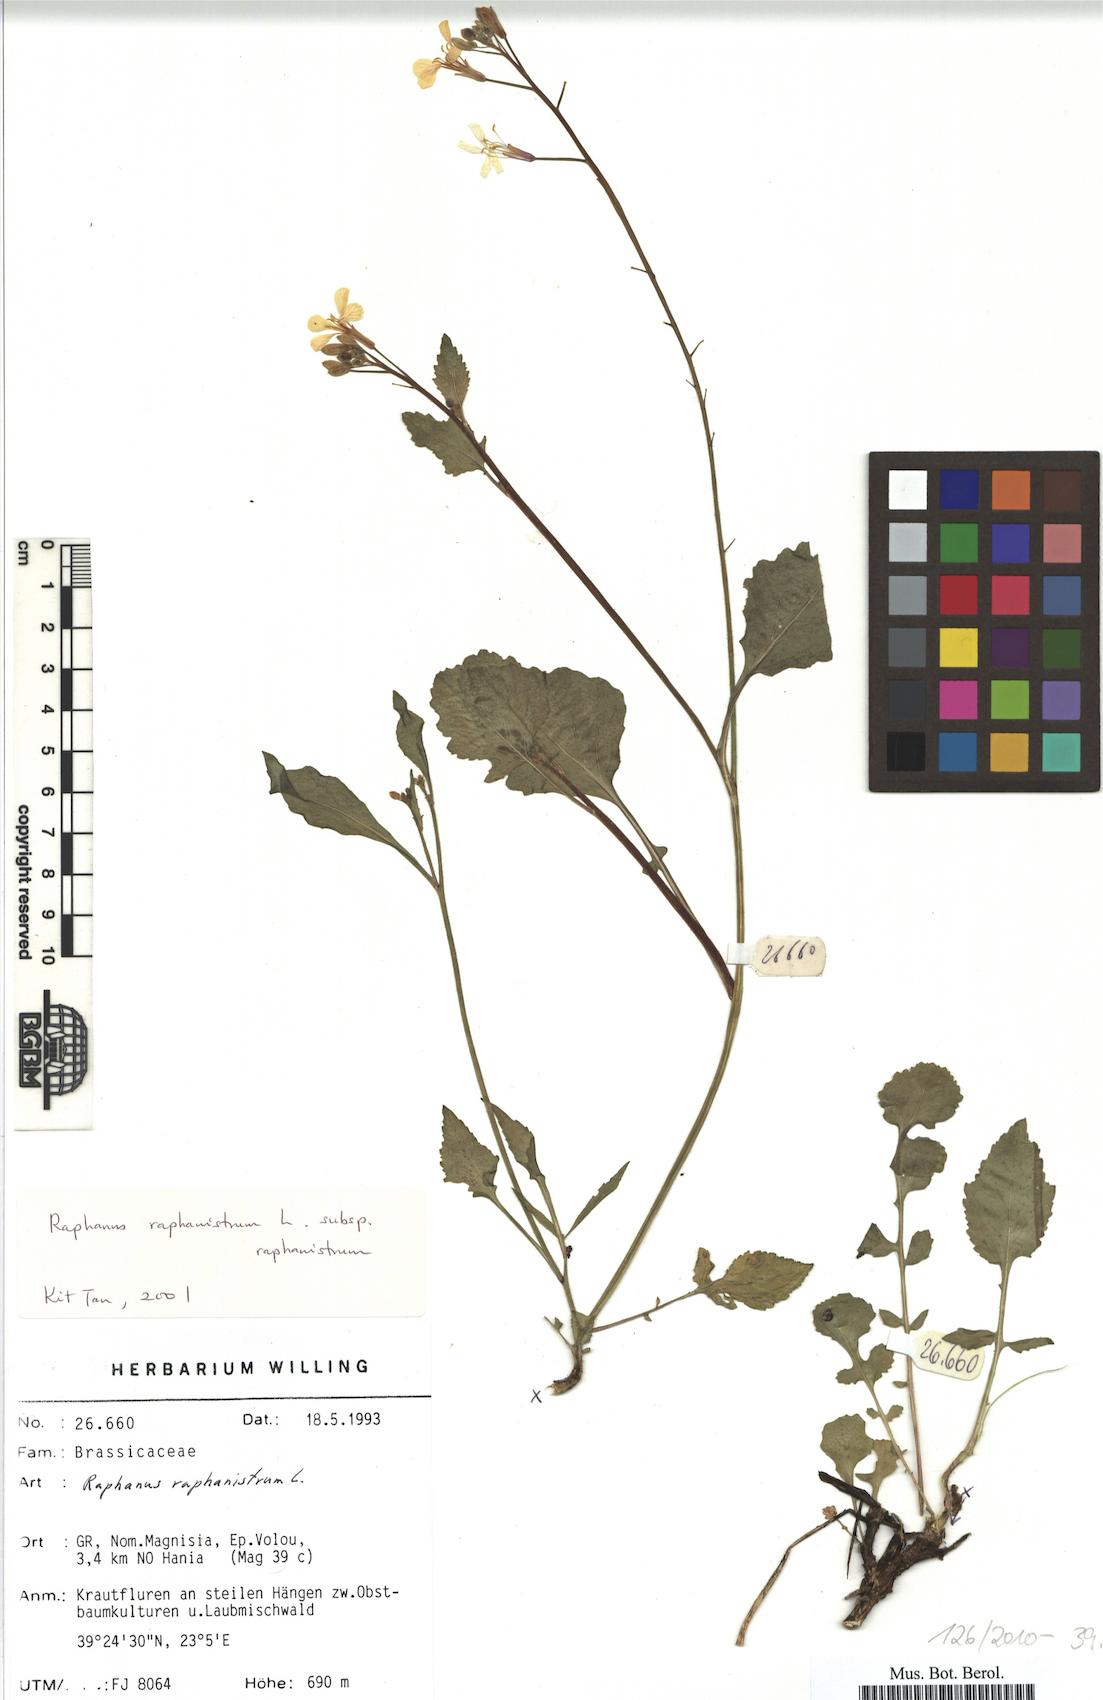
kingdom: Plantae
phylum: Tracheophyta
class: Magnoliopsida
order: Brassicales
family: Brassicaceae
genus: Raphanus
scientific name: Raphanus raphanistrum
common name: Wild radish
